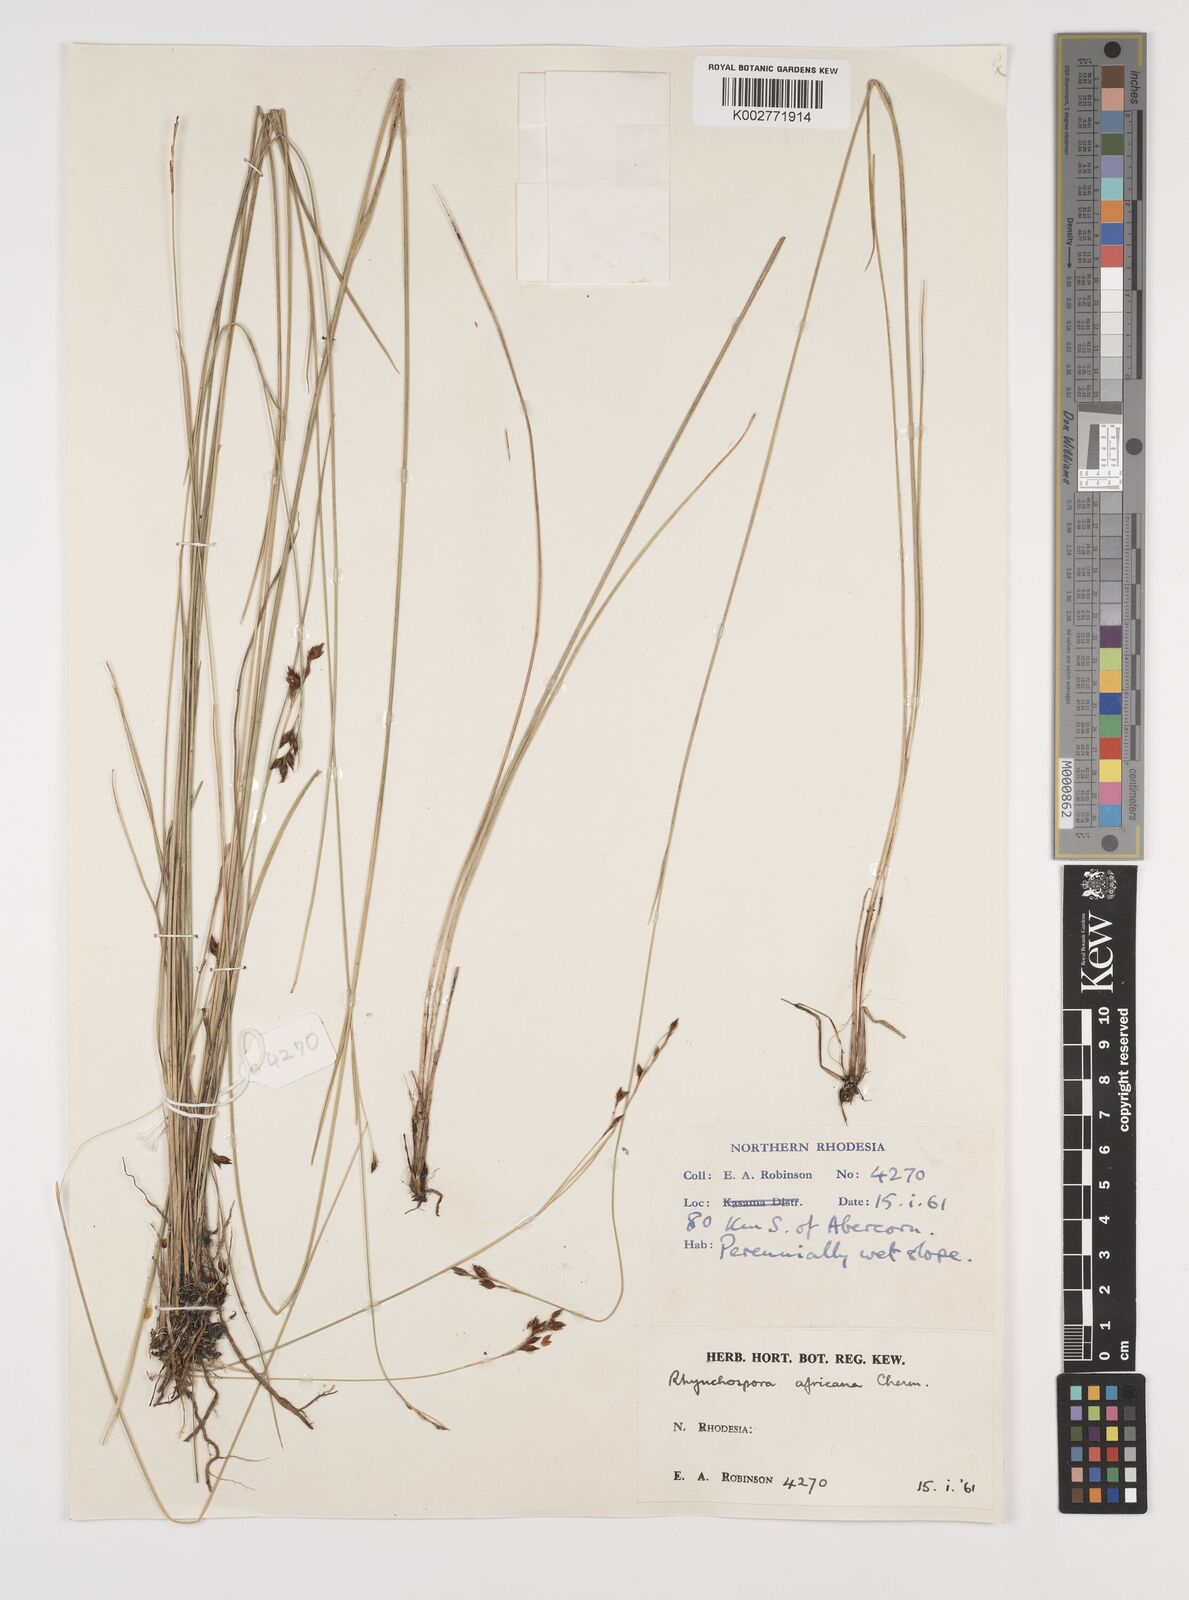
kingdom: Plantae
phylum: Tracheophyta
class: Liliopsida
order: Poales
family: Cyperaceae
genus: Rhynchospora
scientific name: Rhynchospora angolensis
